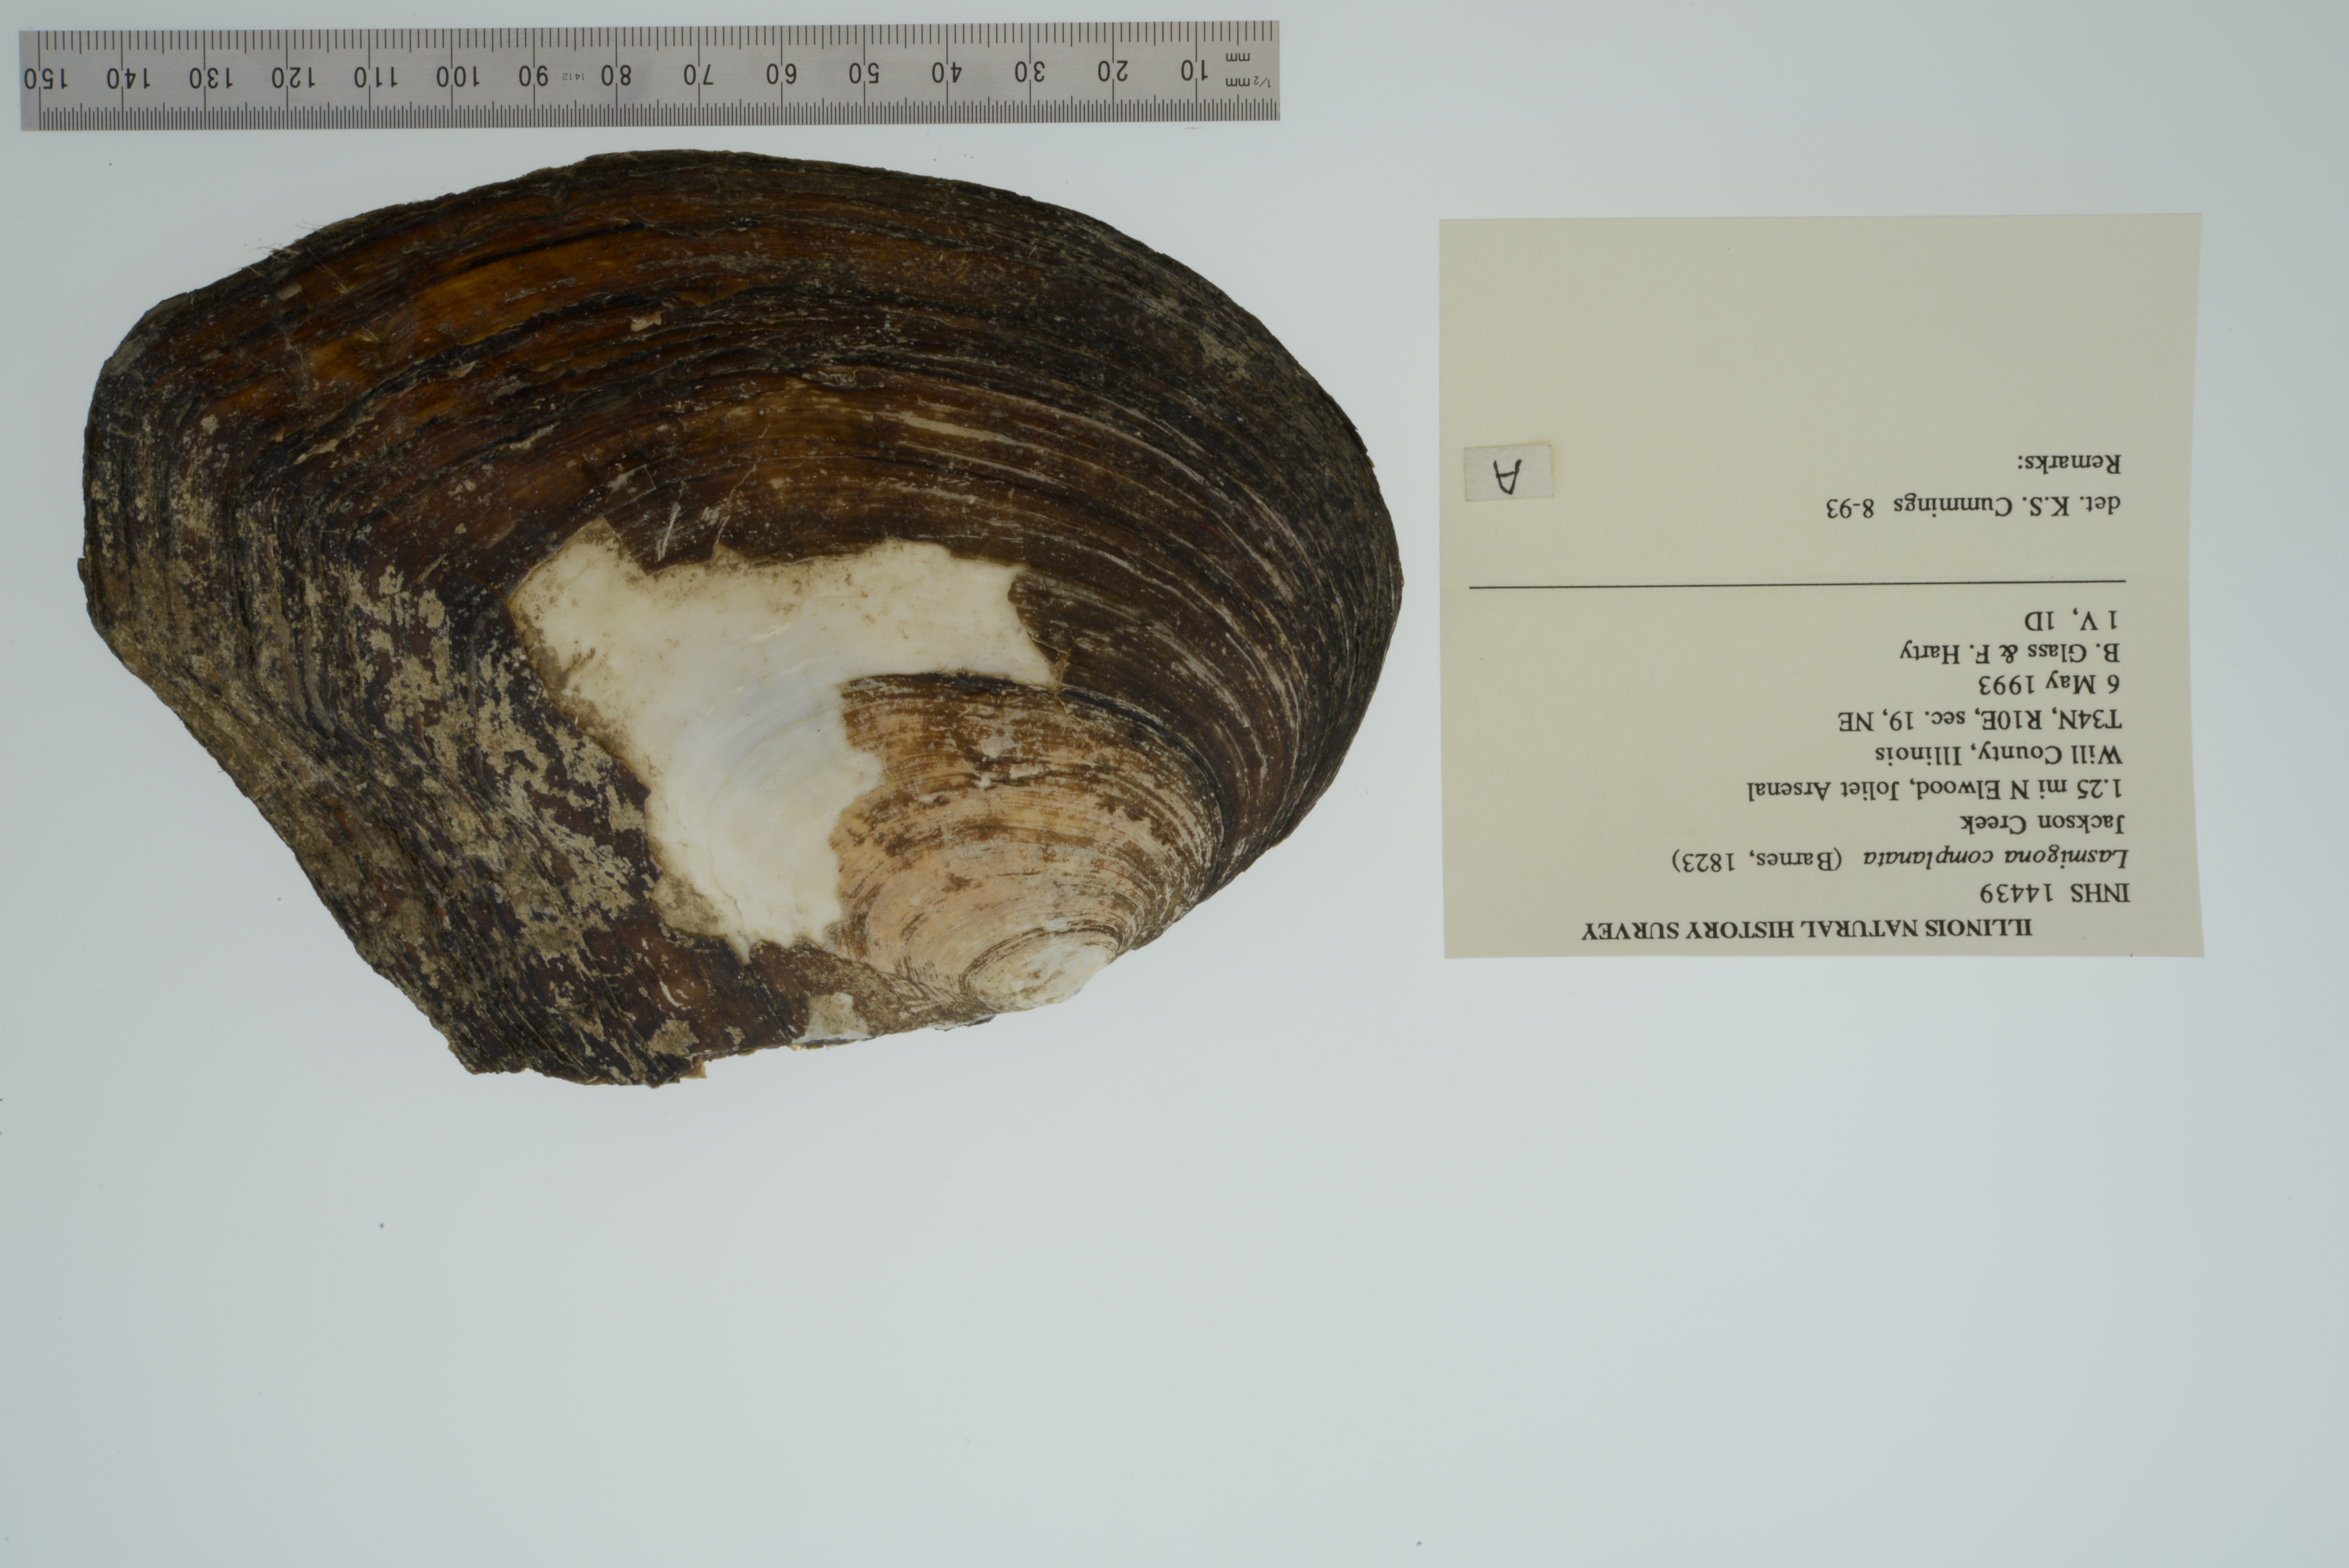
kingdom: Animalia
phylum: Mollusca
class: Bivalvia
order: Unionida
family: Unionidae
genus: Lasmigona
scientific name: Lasmigona complanata
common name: White heelsplitter
